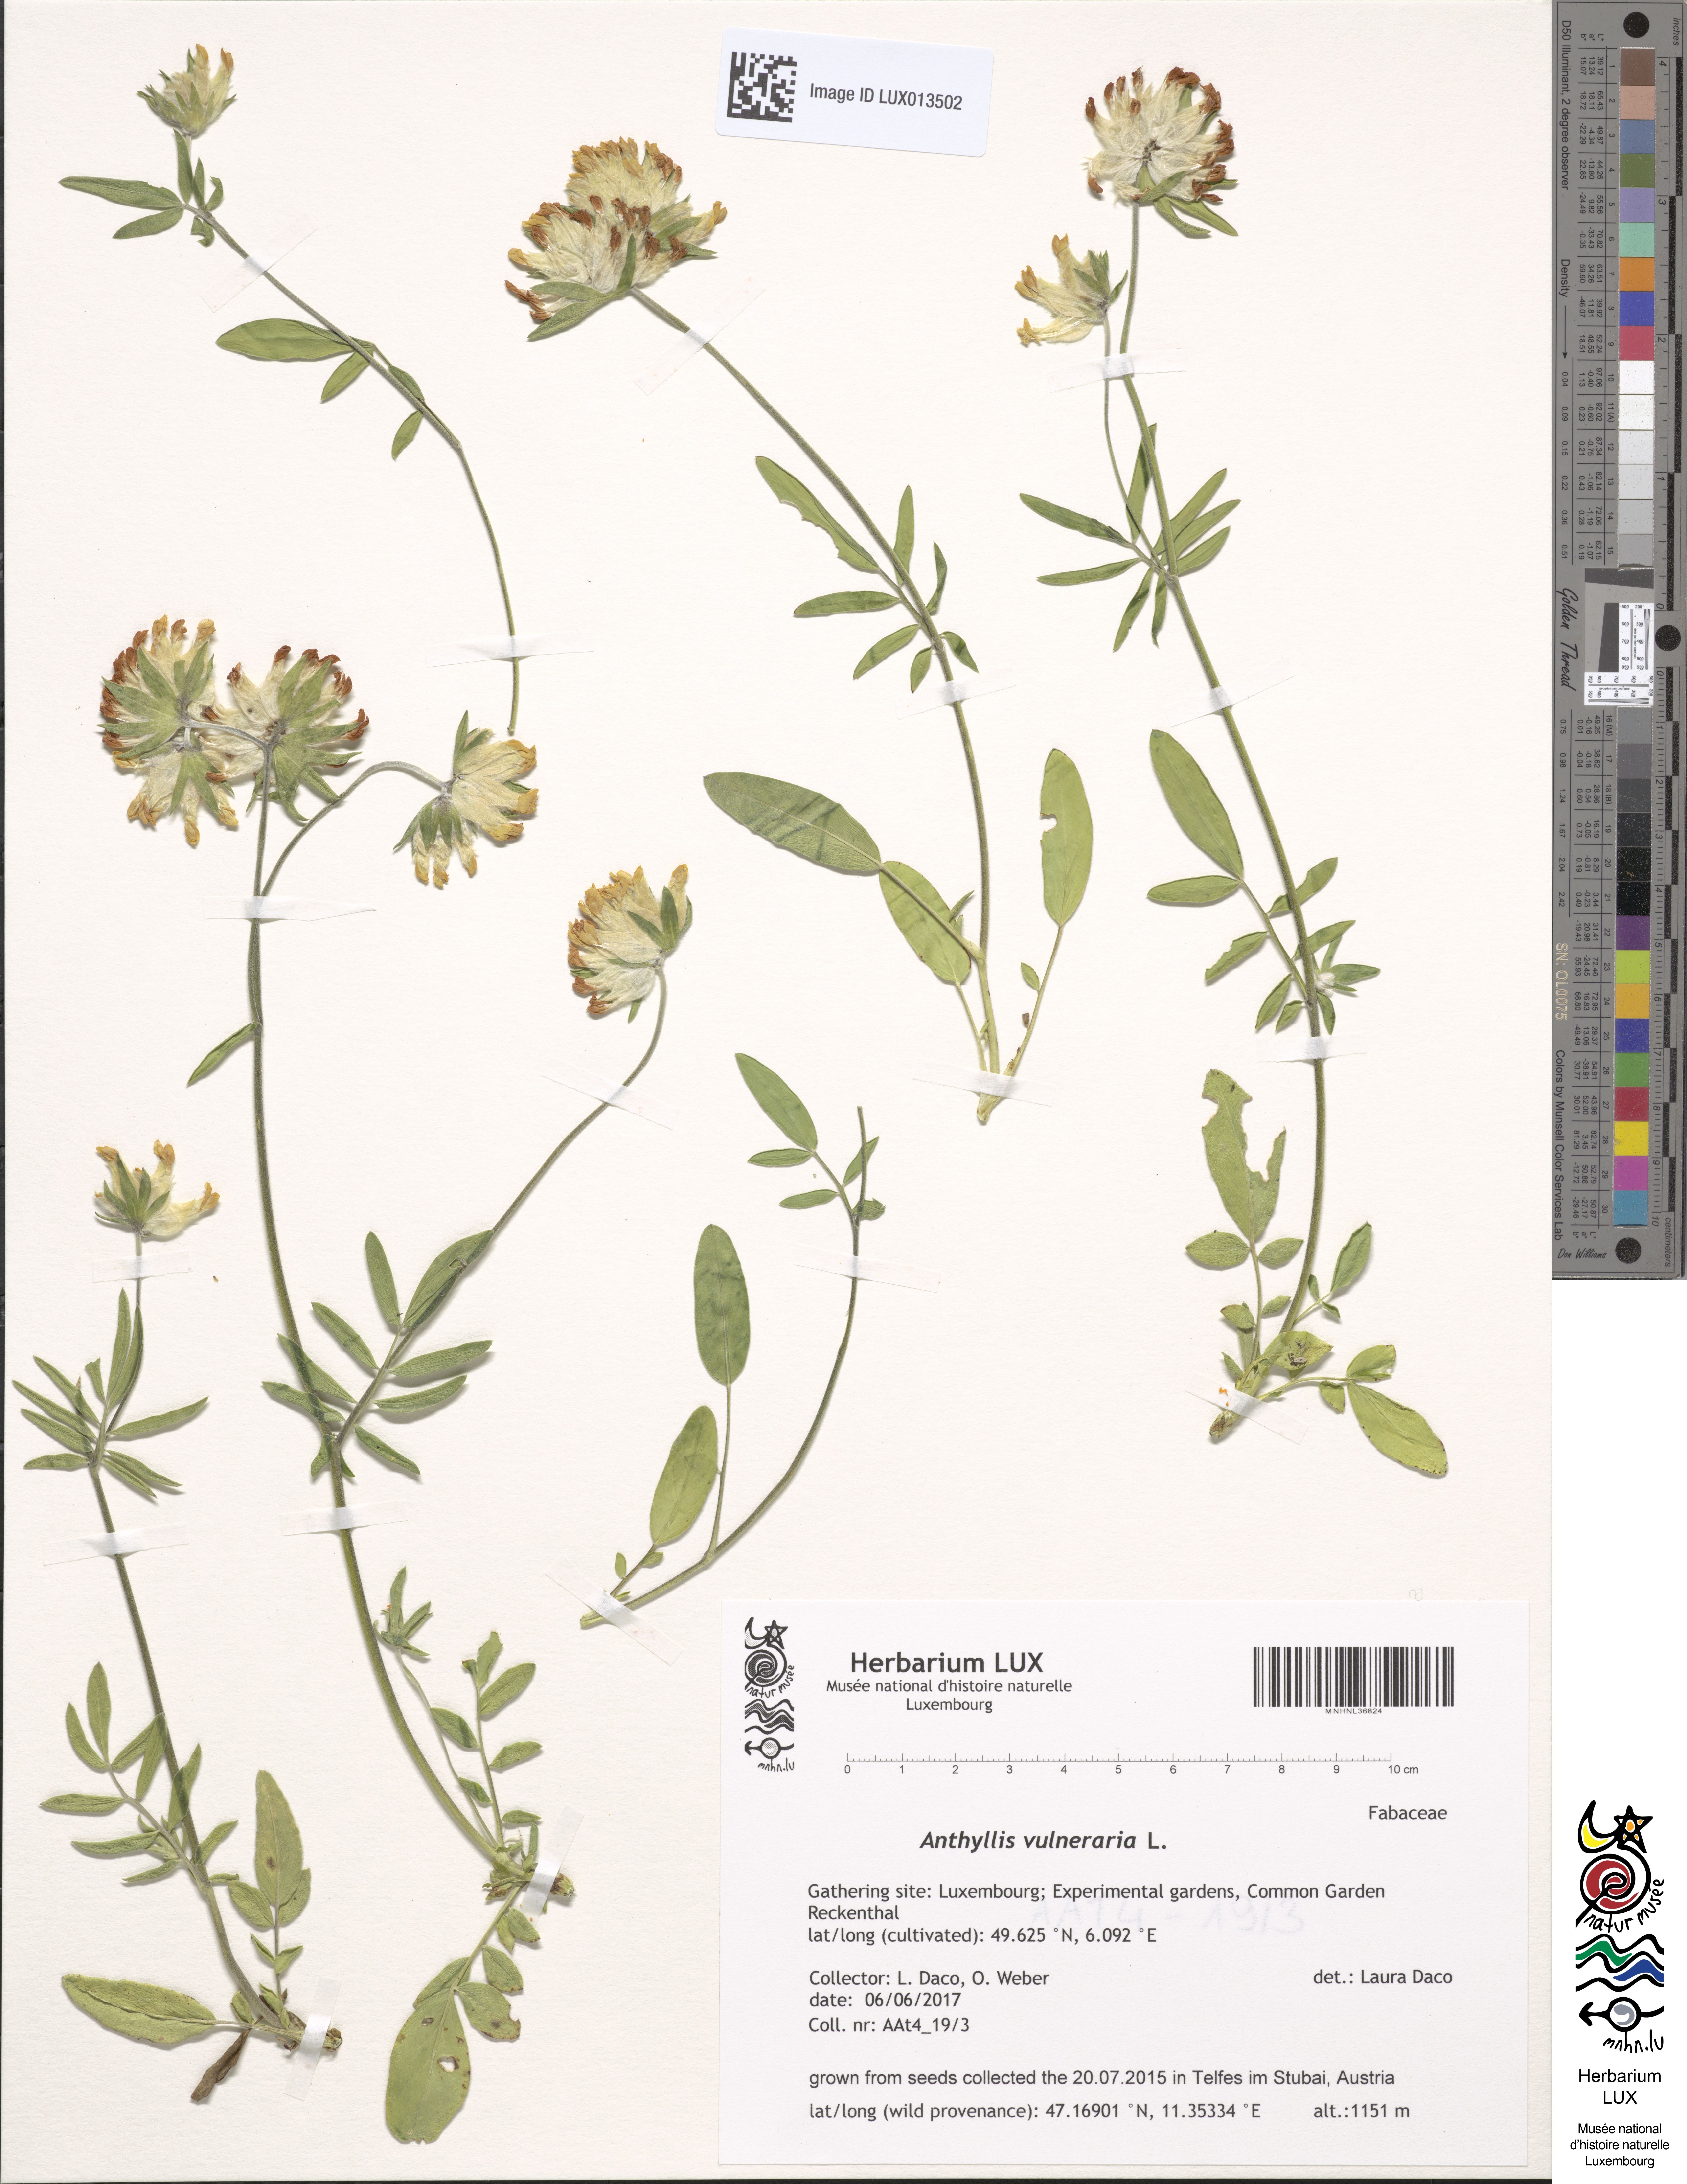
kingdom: Plantae
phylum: Tracheophyta
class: Magnoliopsida
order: Fabales
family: Fabaceae
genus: Anthyllis
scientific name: Anthyllis vulneraria
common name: Kidney vetch
